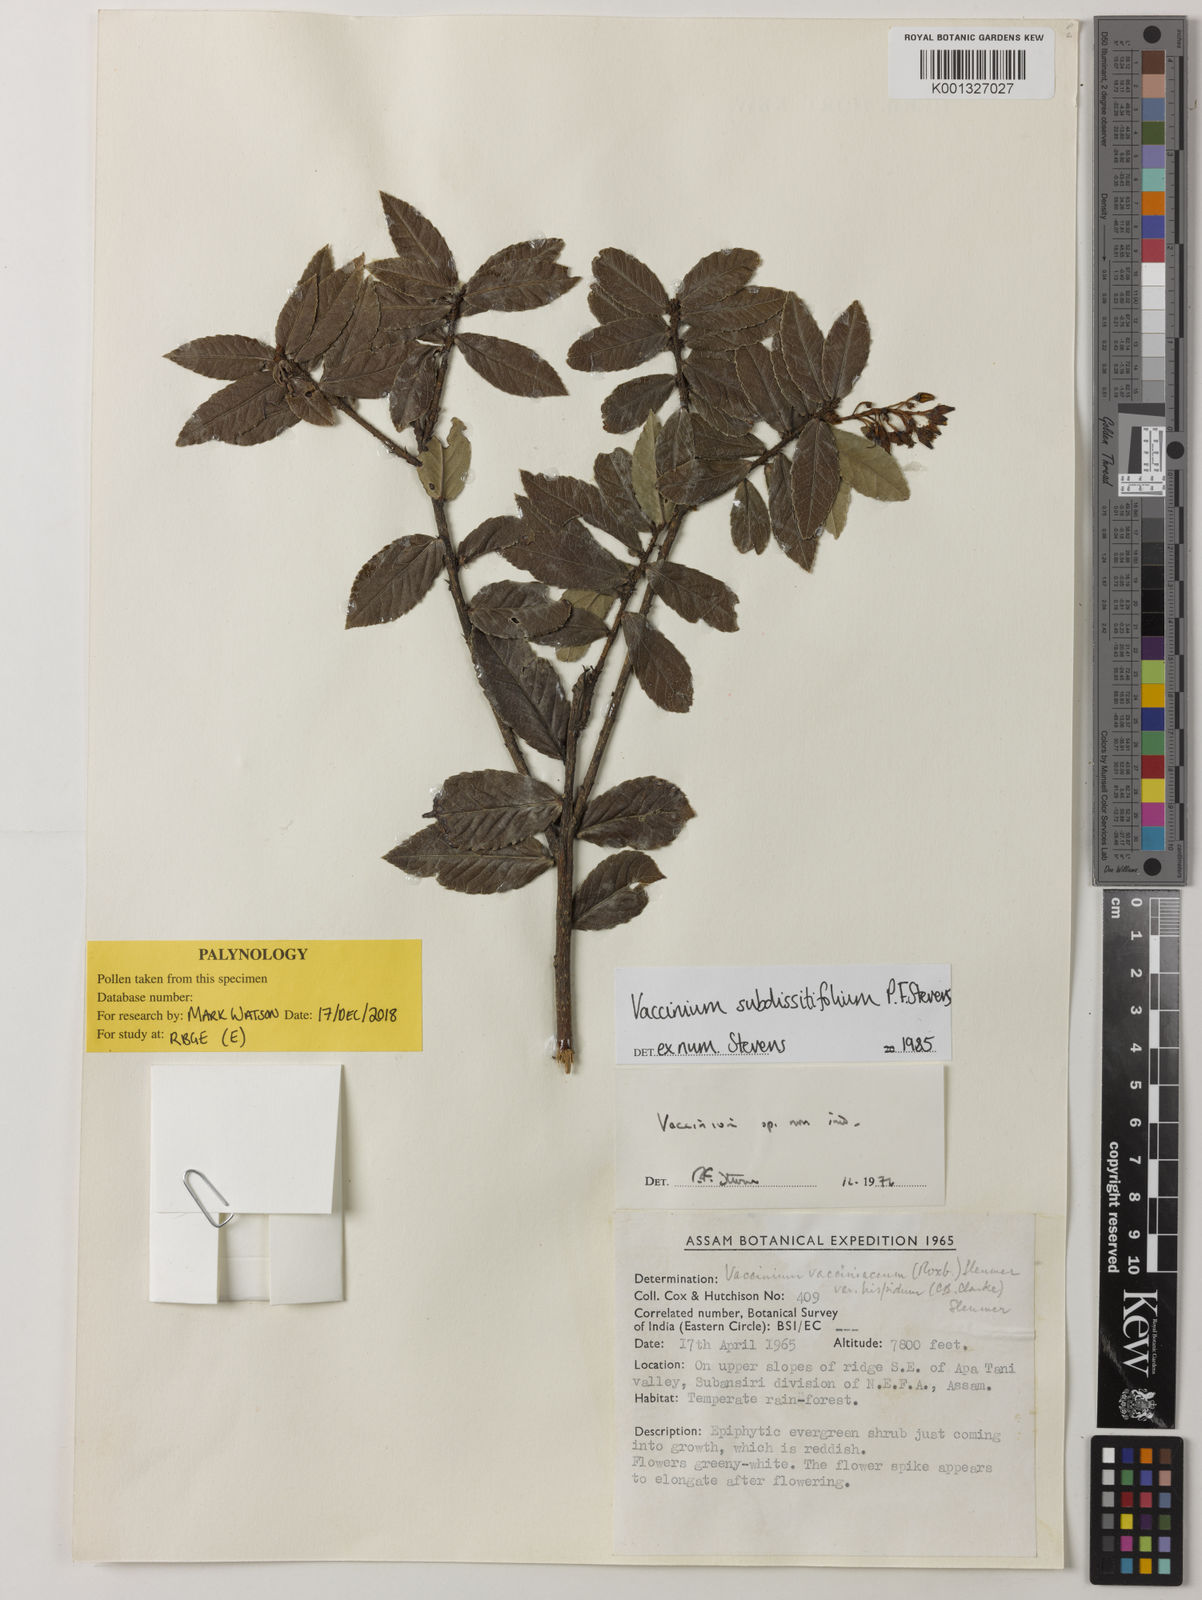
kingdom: Plantae
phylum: Tracheophyta
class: Magnoliopsida
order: Ericales
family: Ericaceae
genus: Vaccinium
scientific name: Vaccinium subdissitifolium
